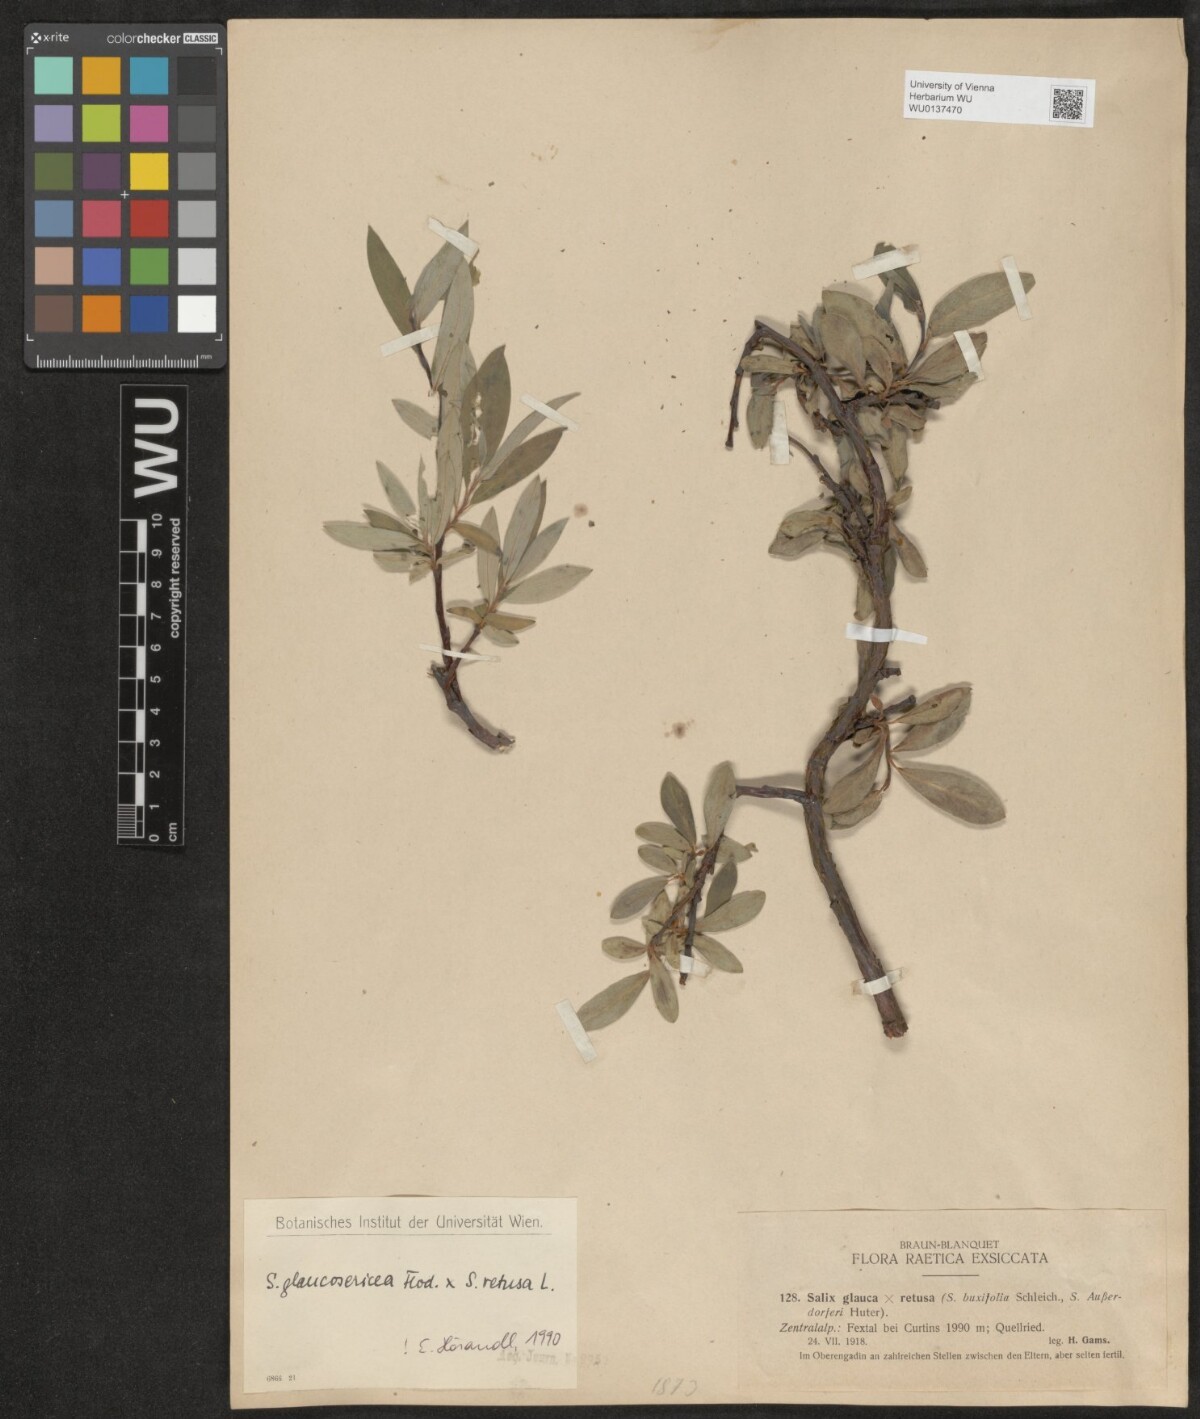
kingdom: Plantae
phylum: Tracheophyta
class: Magnoliopsida
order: Malpighiales
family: Salicaceae
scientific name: Salicaceae
